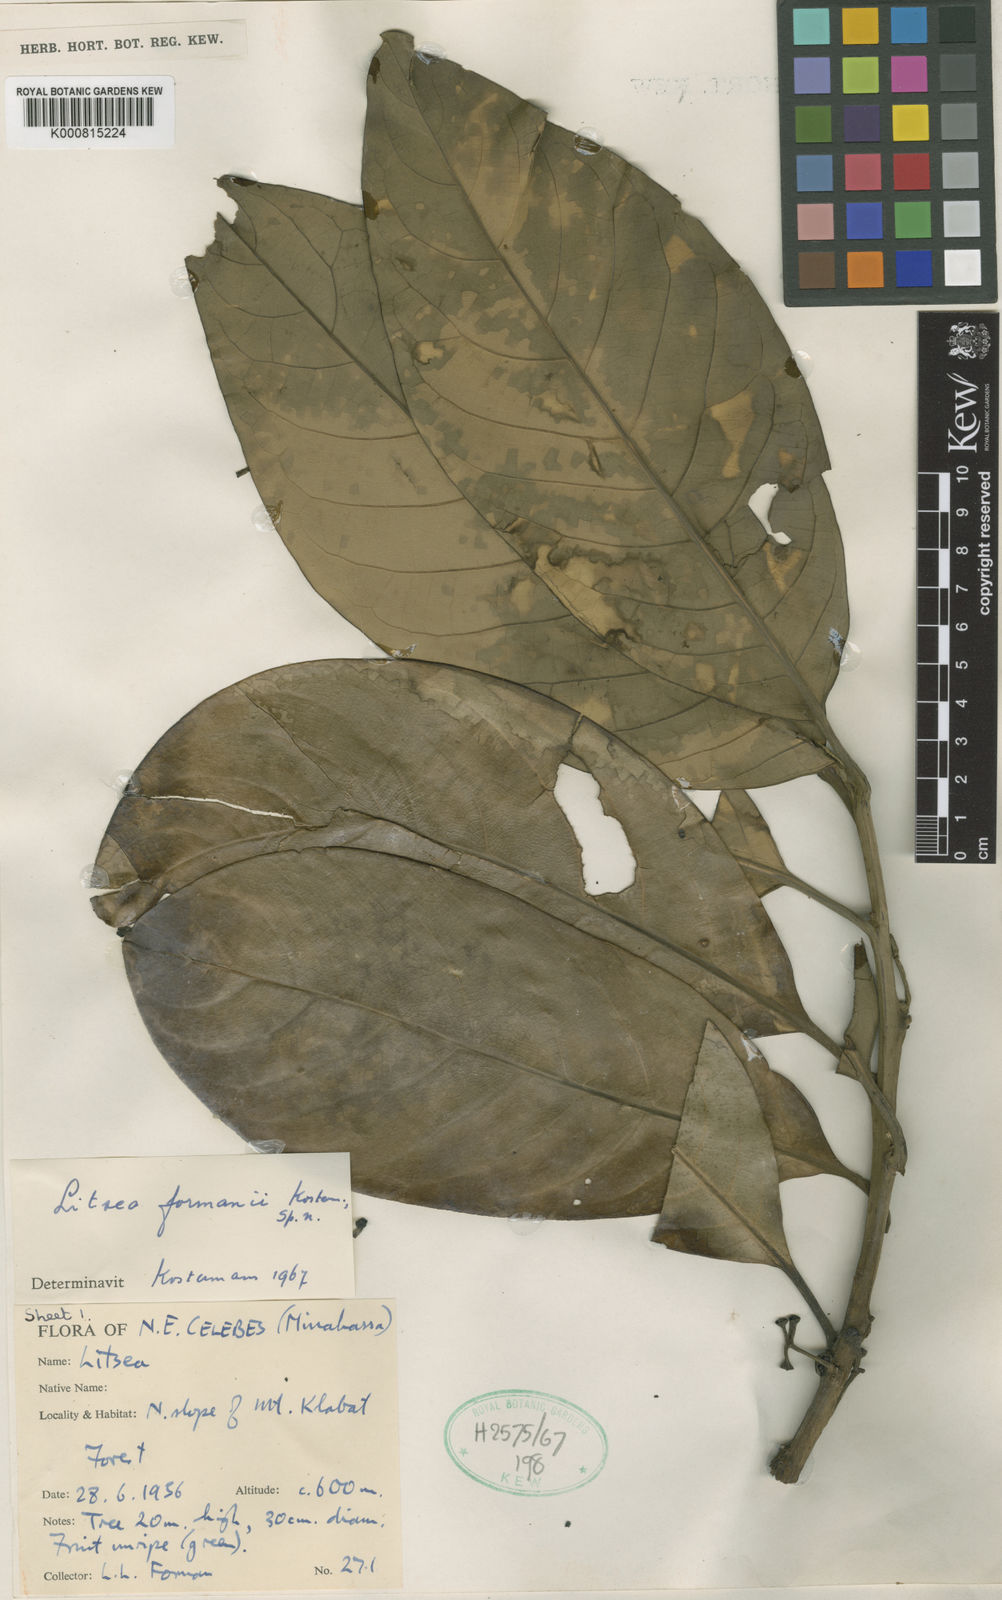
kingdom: Plantae
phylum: Tracheophyta
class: Magnoliopsida
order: Laurales
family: Lauraceae
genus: Litsea
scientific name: Litsea formanii
